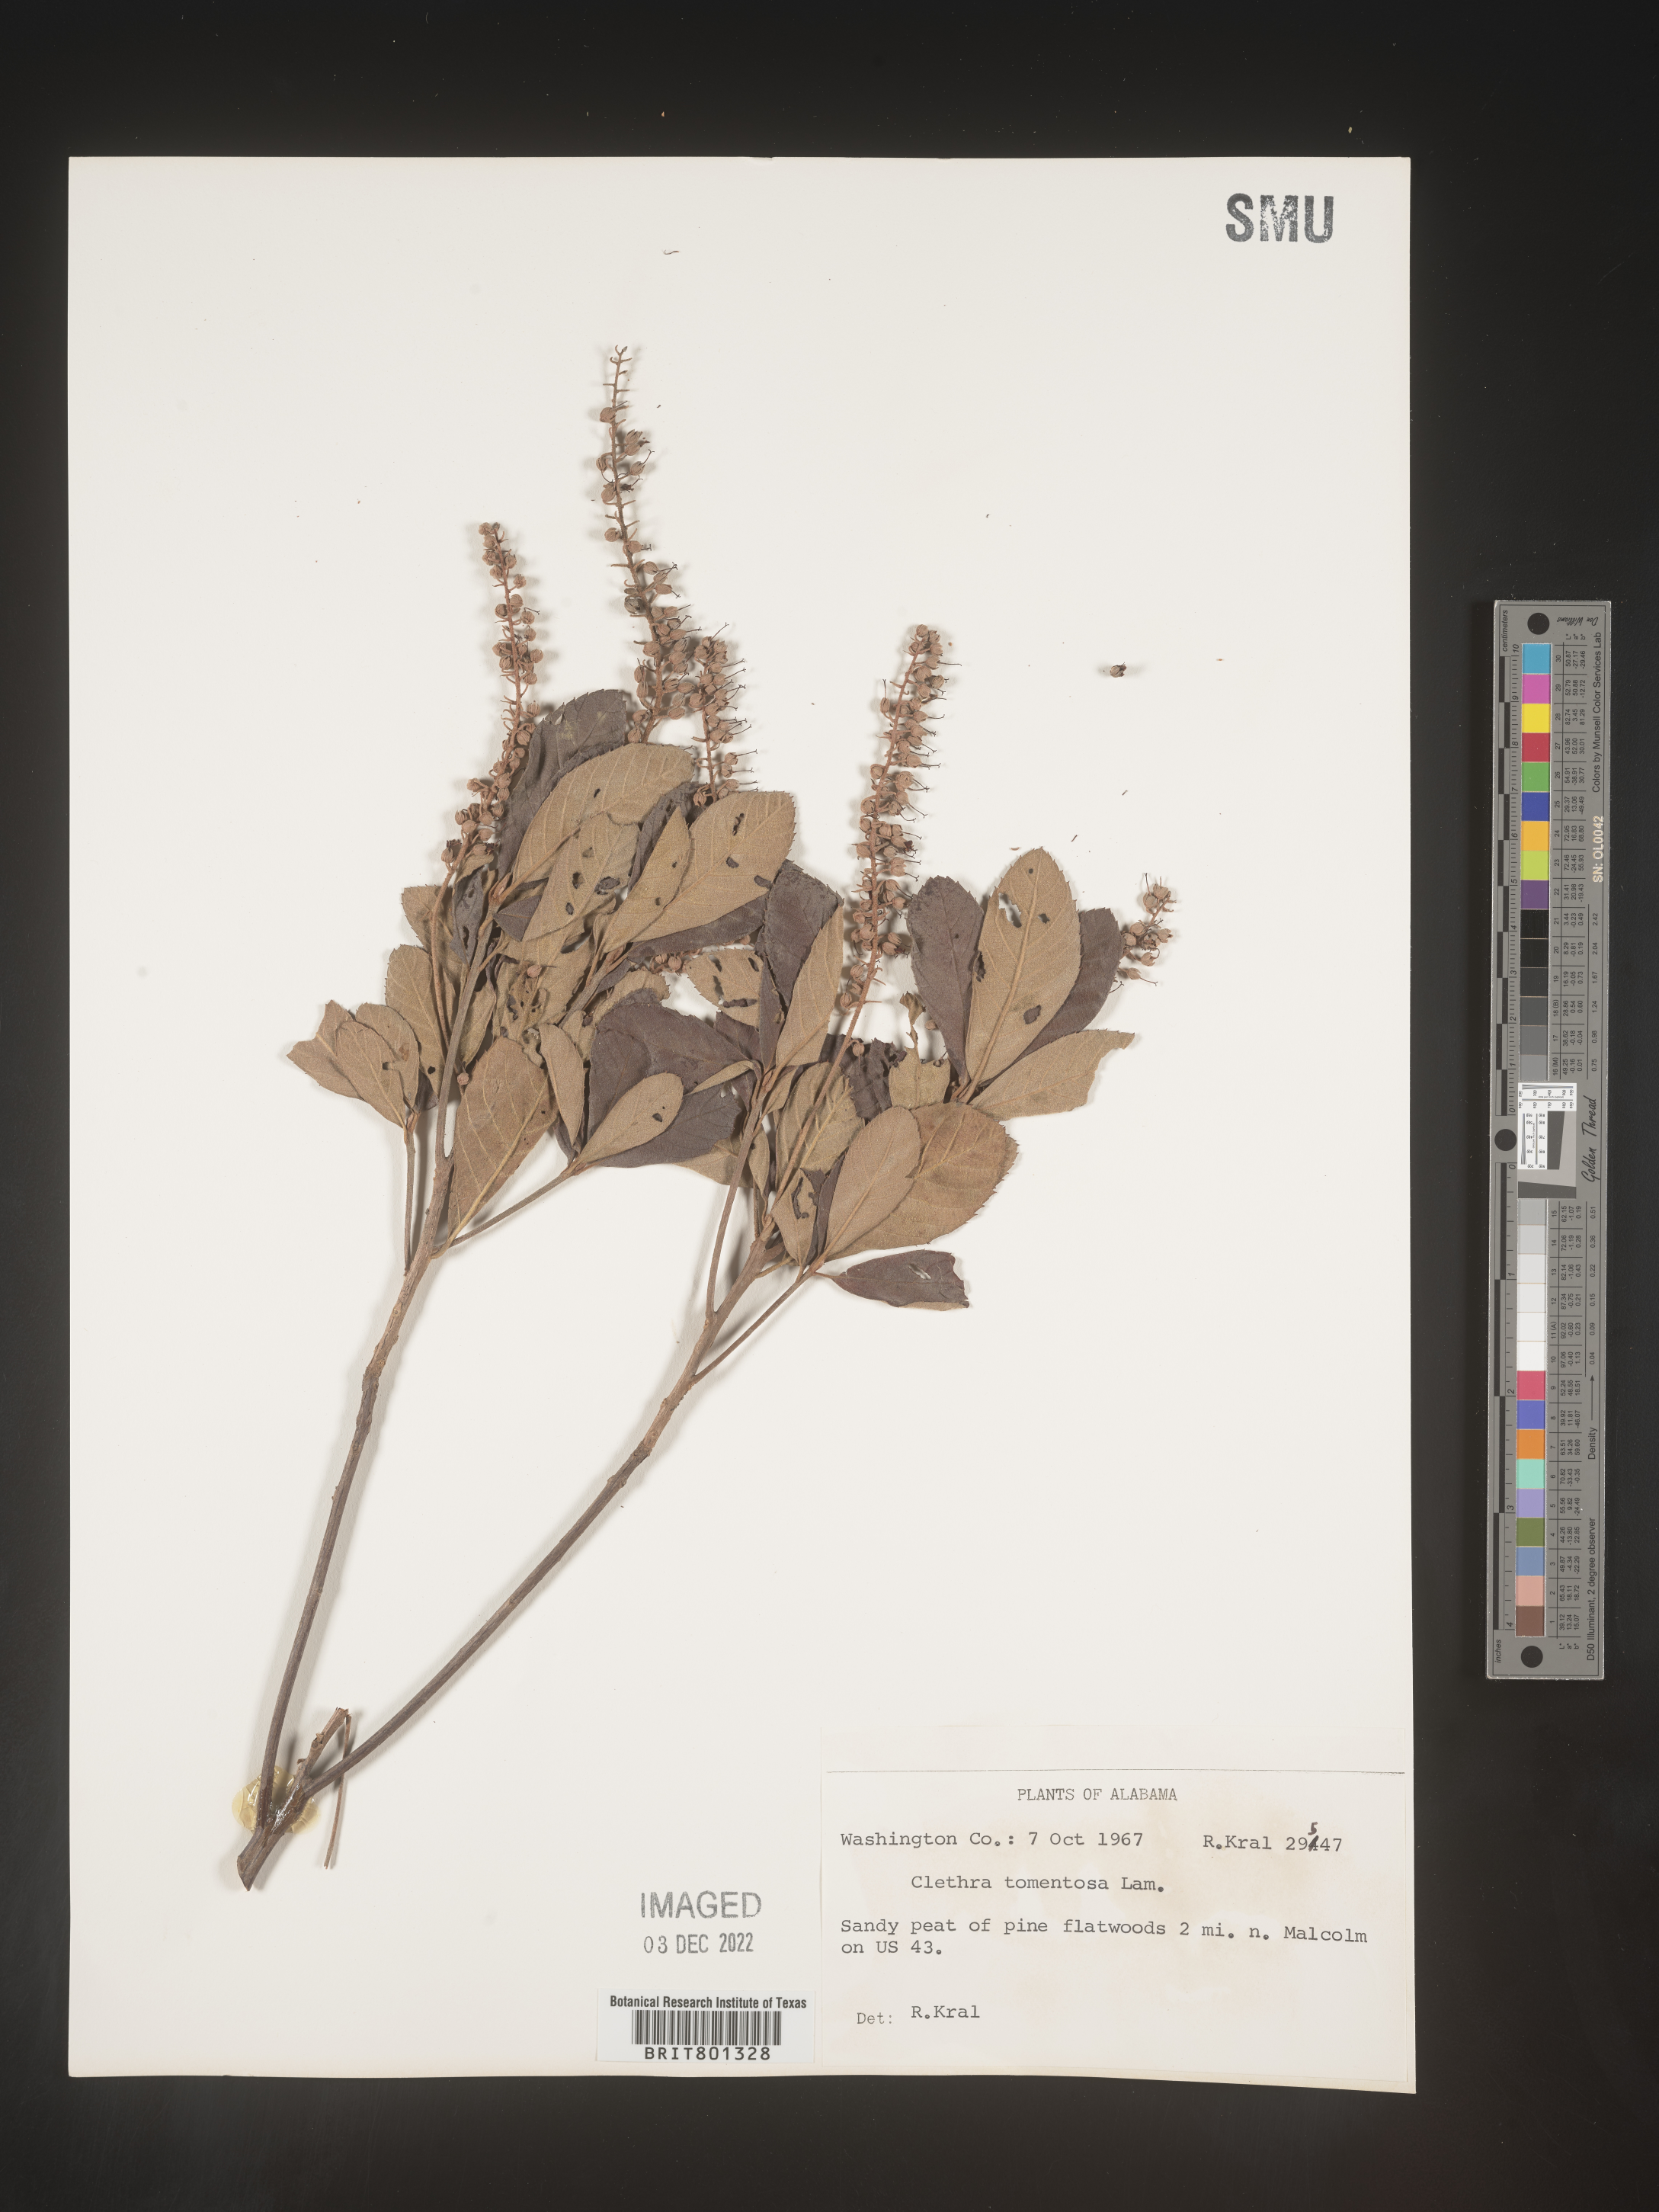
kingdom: Plantae
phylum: Tracheophyta
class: Magnoliopsida
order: Ericales
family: Clethraceae
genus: Clethra
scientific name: Clethra alnifolia
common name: Sweet pepperbush
